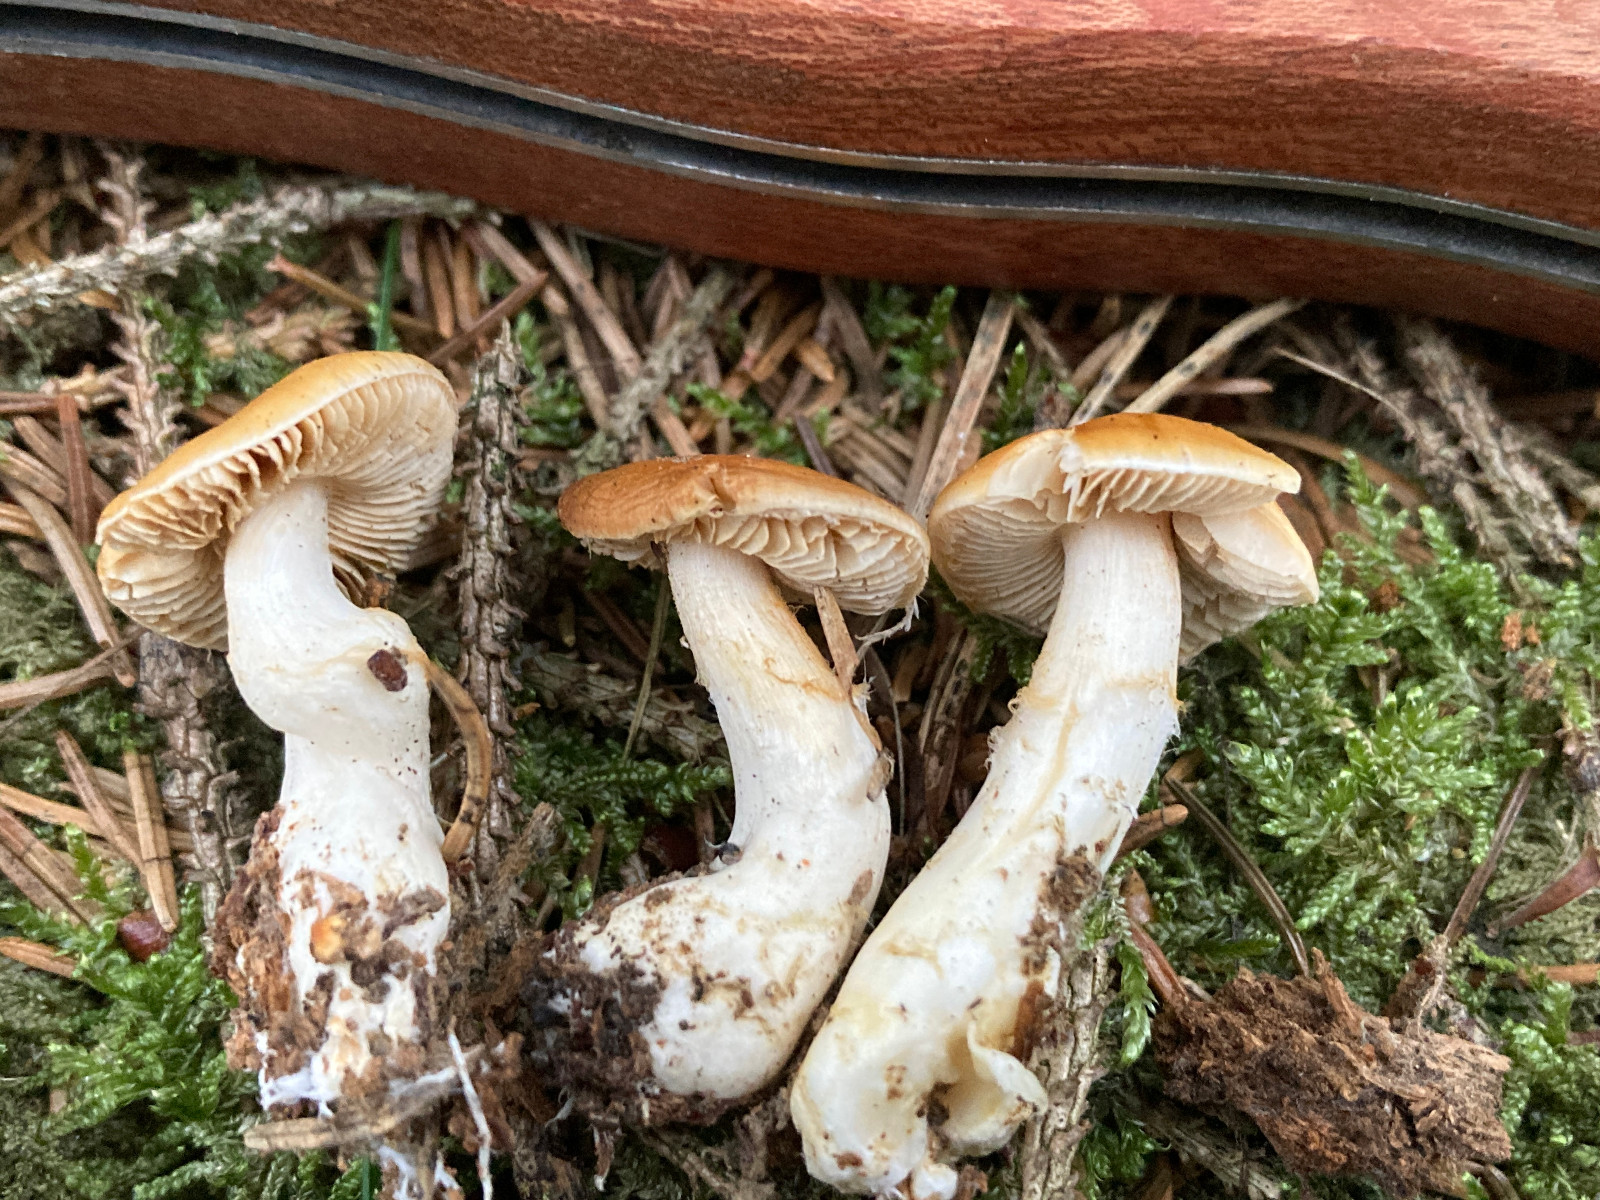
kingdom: Fungi
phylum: Basidiomycota
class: Agaricomycetes
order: Agaricales
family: Cortinariaceae
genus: Thaxterogaster
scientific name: Thaxterogaster
